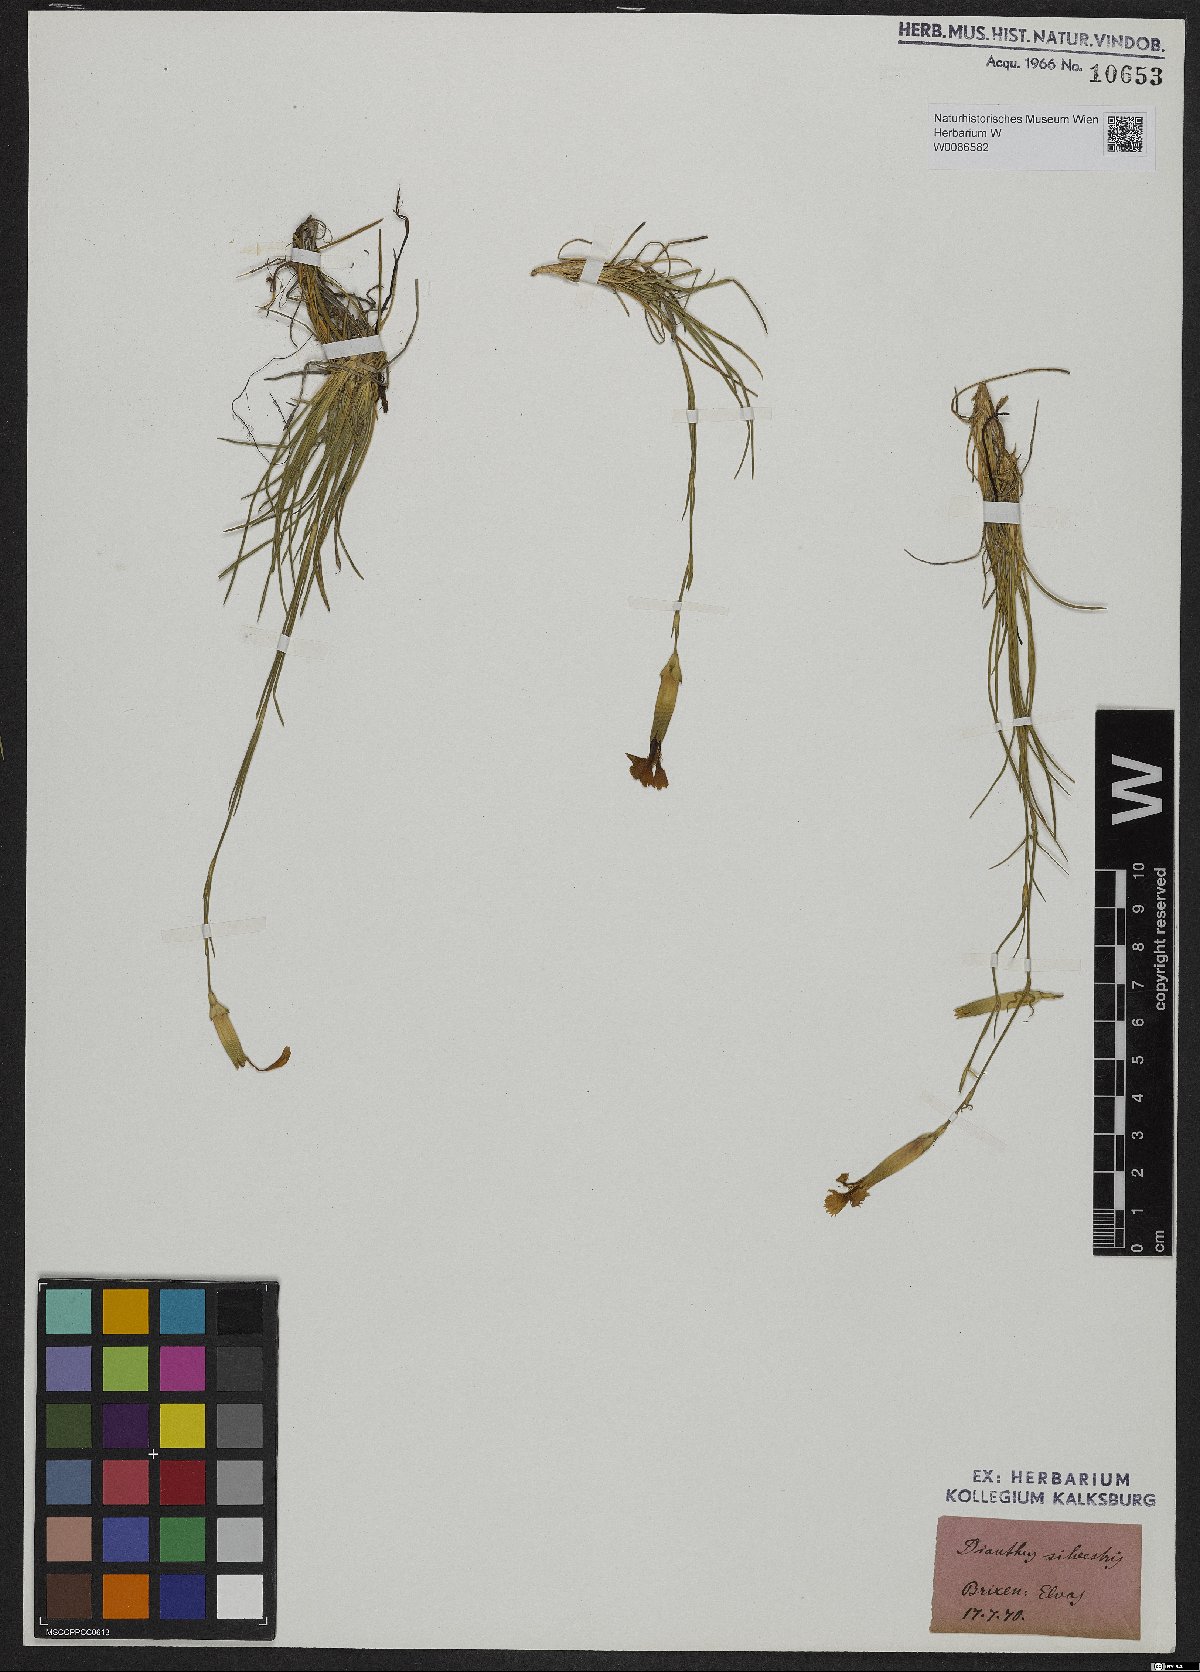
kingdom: Plantae
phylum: Tracheophyta
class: Magnoliopsida
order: Caryophyllales
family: Caryophyllaceae
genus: Dianthus
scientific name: Dianthus sylvestris
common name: Wood pink
